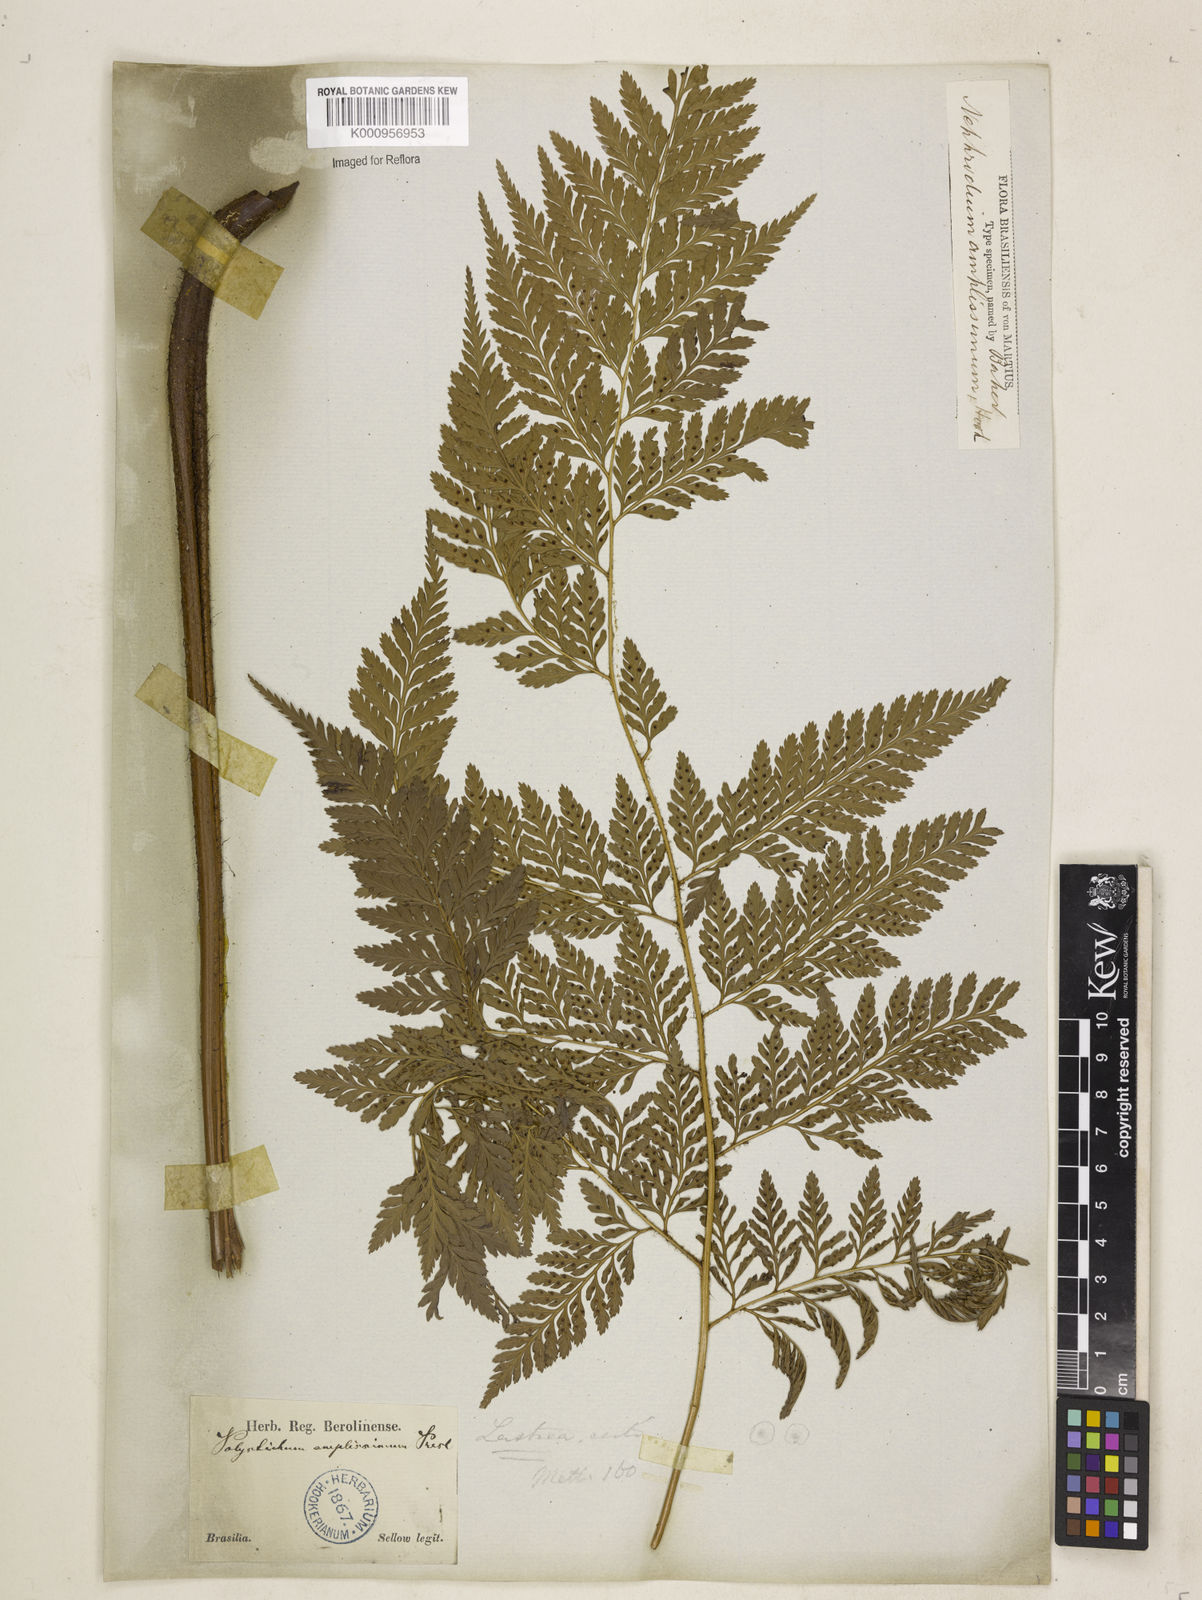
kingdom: Plantae
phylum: Tracheophyta
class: Polypodiopsida
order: Polypodiales
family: Dryopteridaceae
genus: Lastreopsis
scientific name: Lastreopsis amplissima
